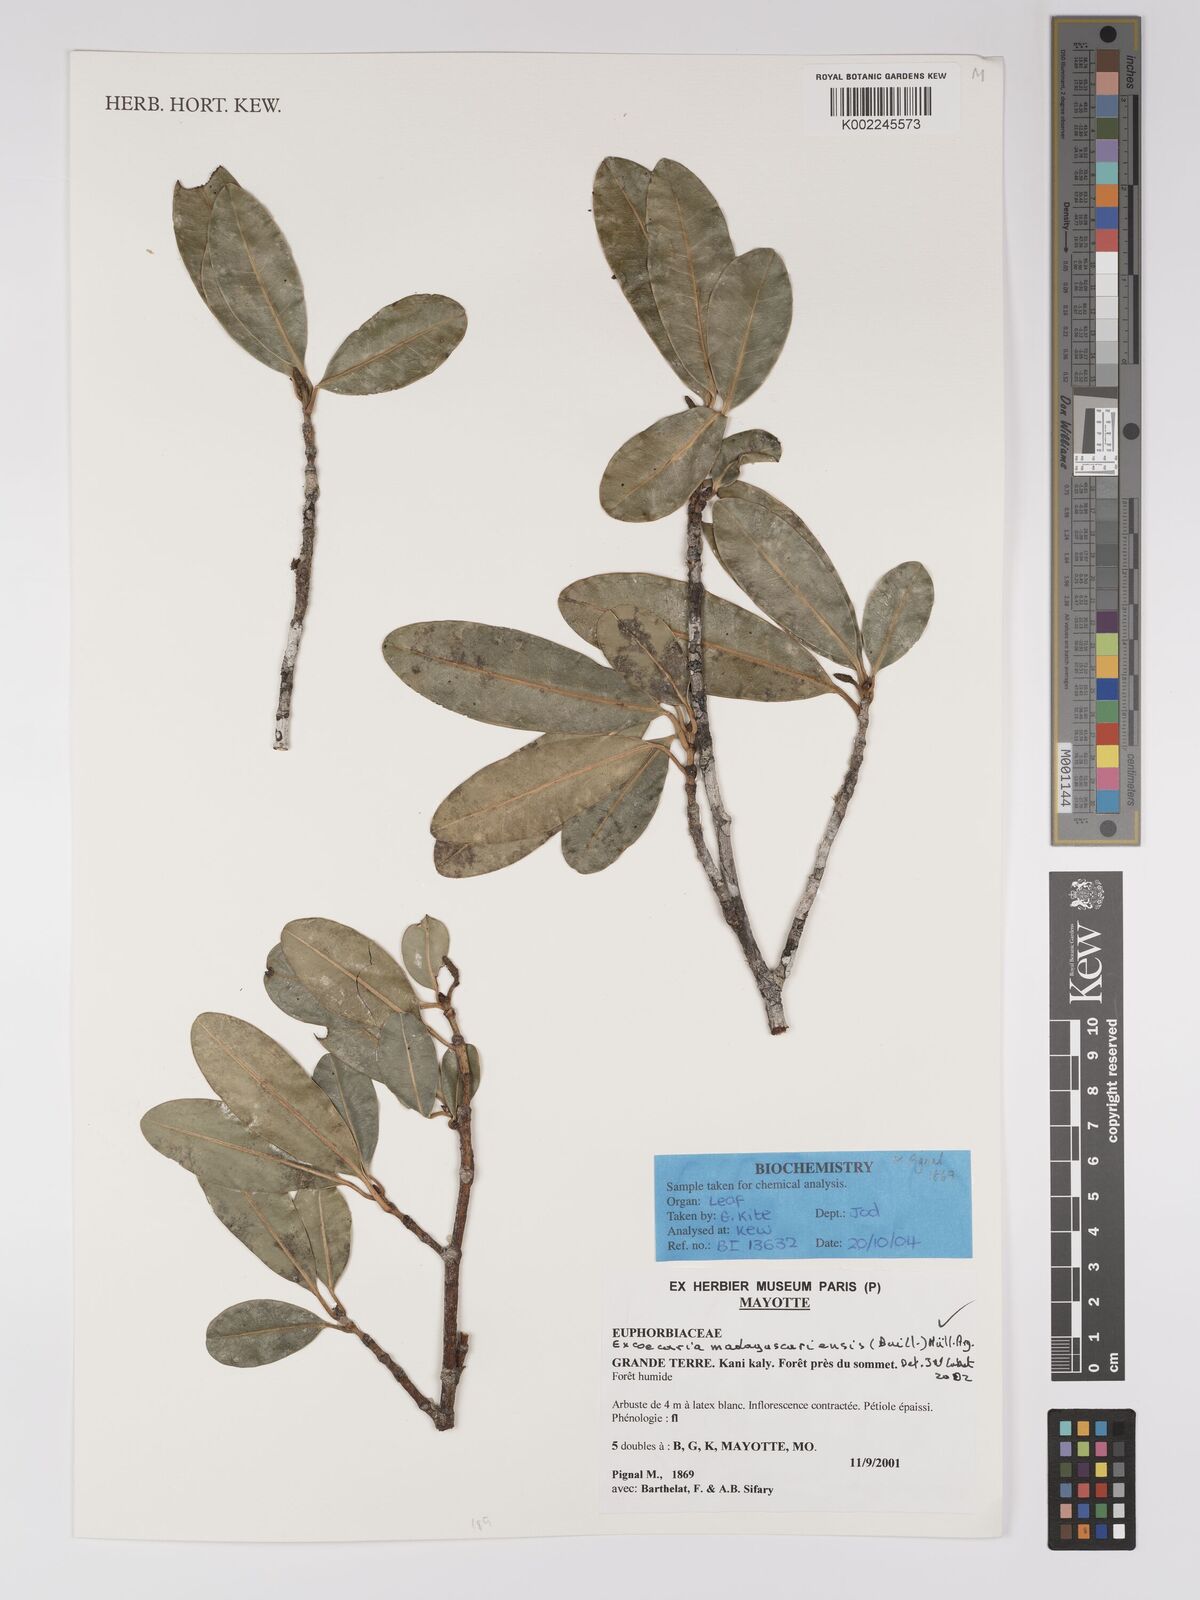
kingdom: Plantae
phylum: Tracheophyta
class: Magnoliopsida
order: Malpighiales
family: Euphorbiaceae
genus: Excoecaria
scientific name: Excoecaria madagascariensis
